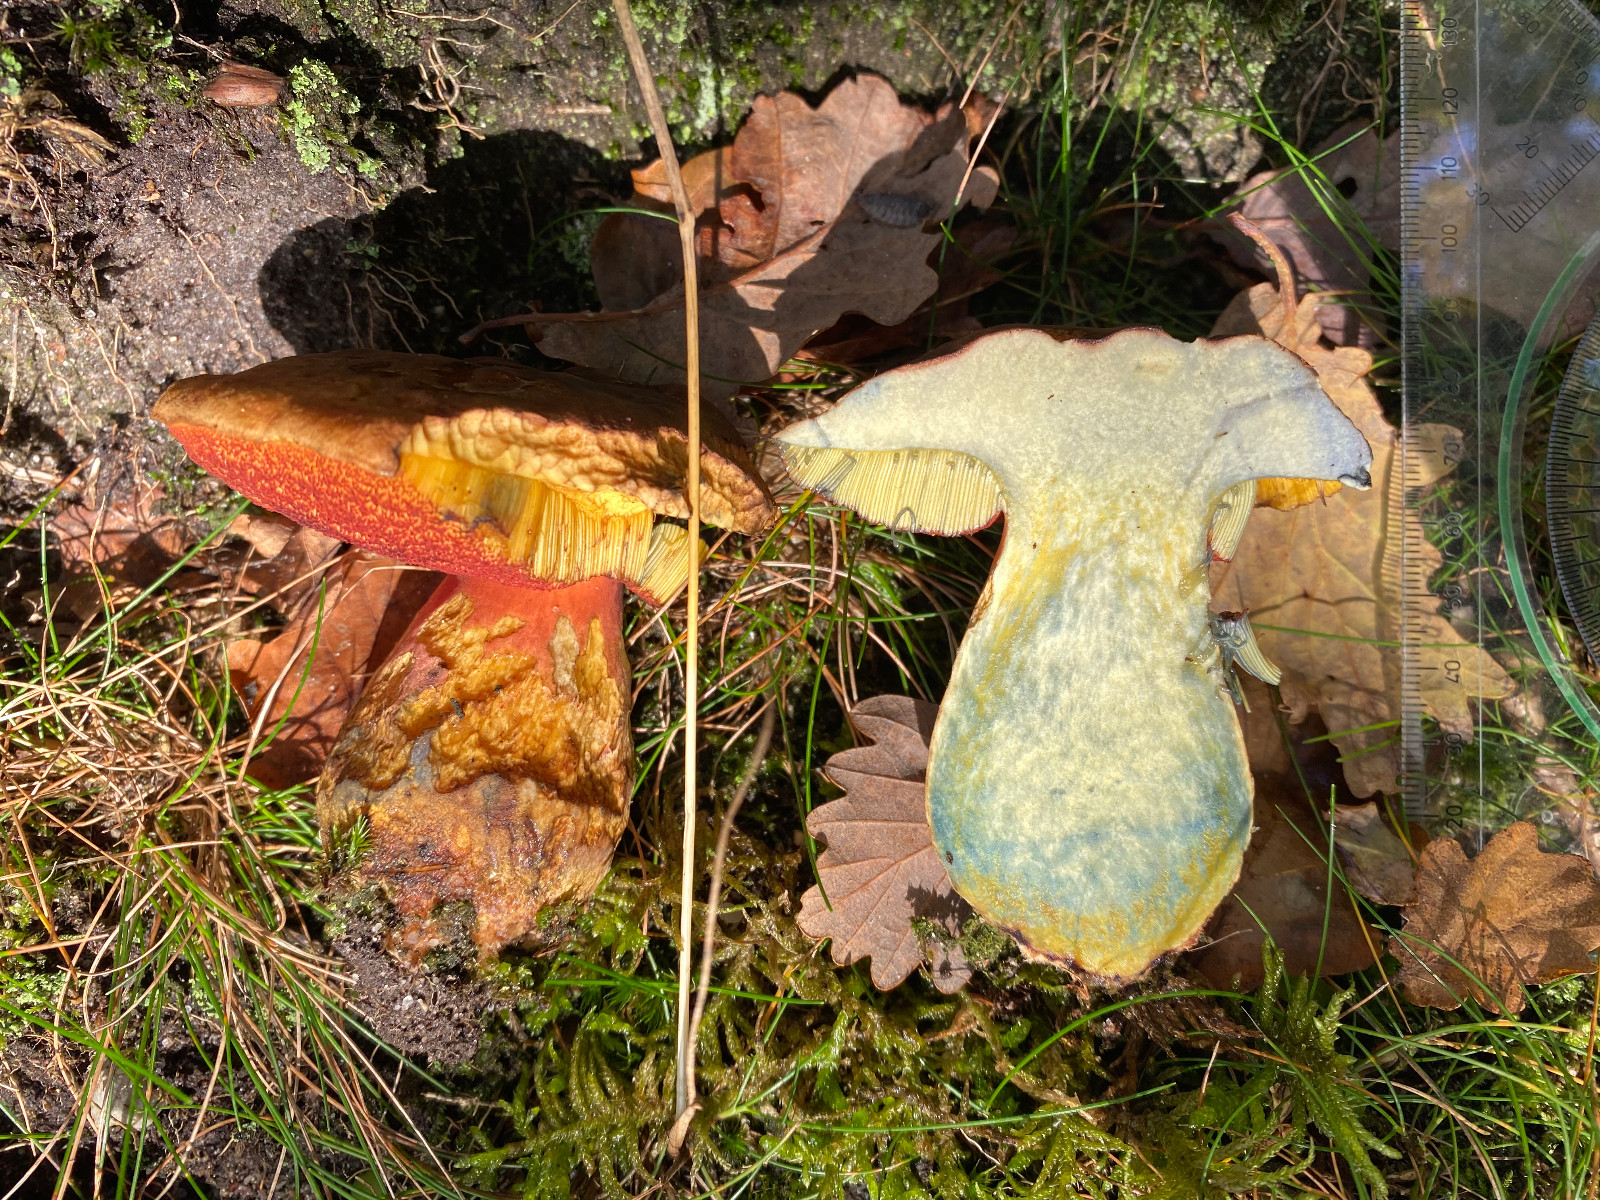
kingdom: Fungi
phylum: Basidiomycota
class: Agaricomycetes
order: Boletales
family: Boletaceae
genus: Neoboletus
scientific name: Neoboletus erythropus
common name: punktstokket indigorørhat
